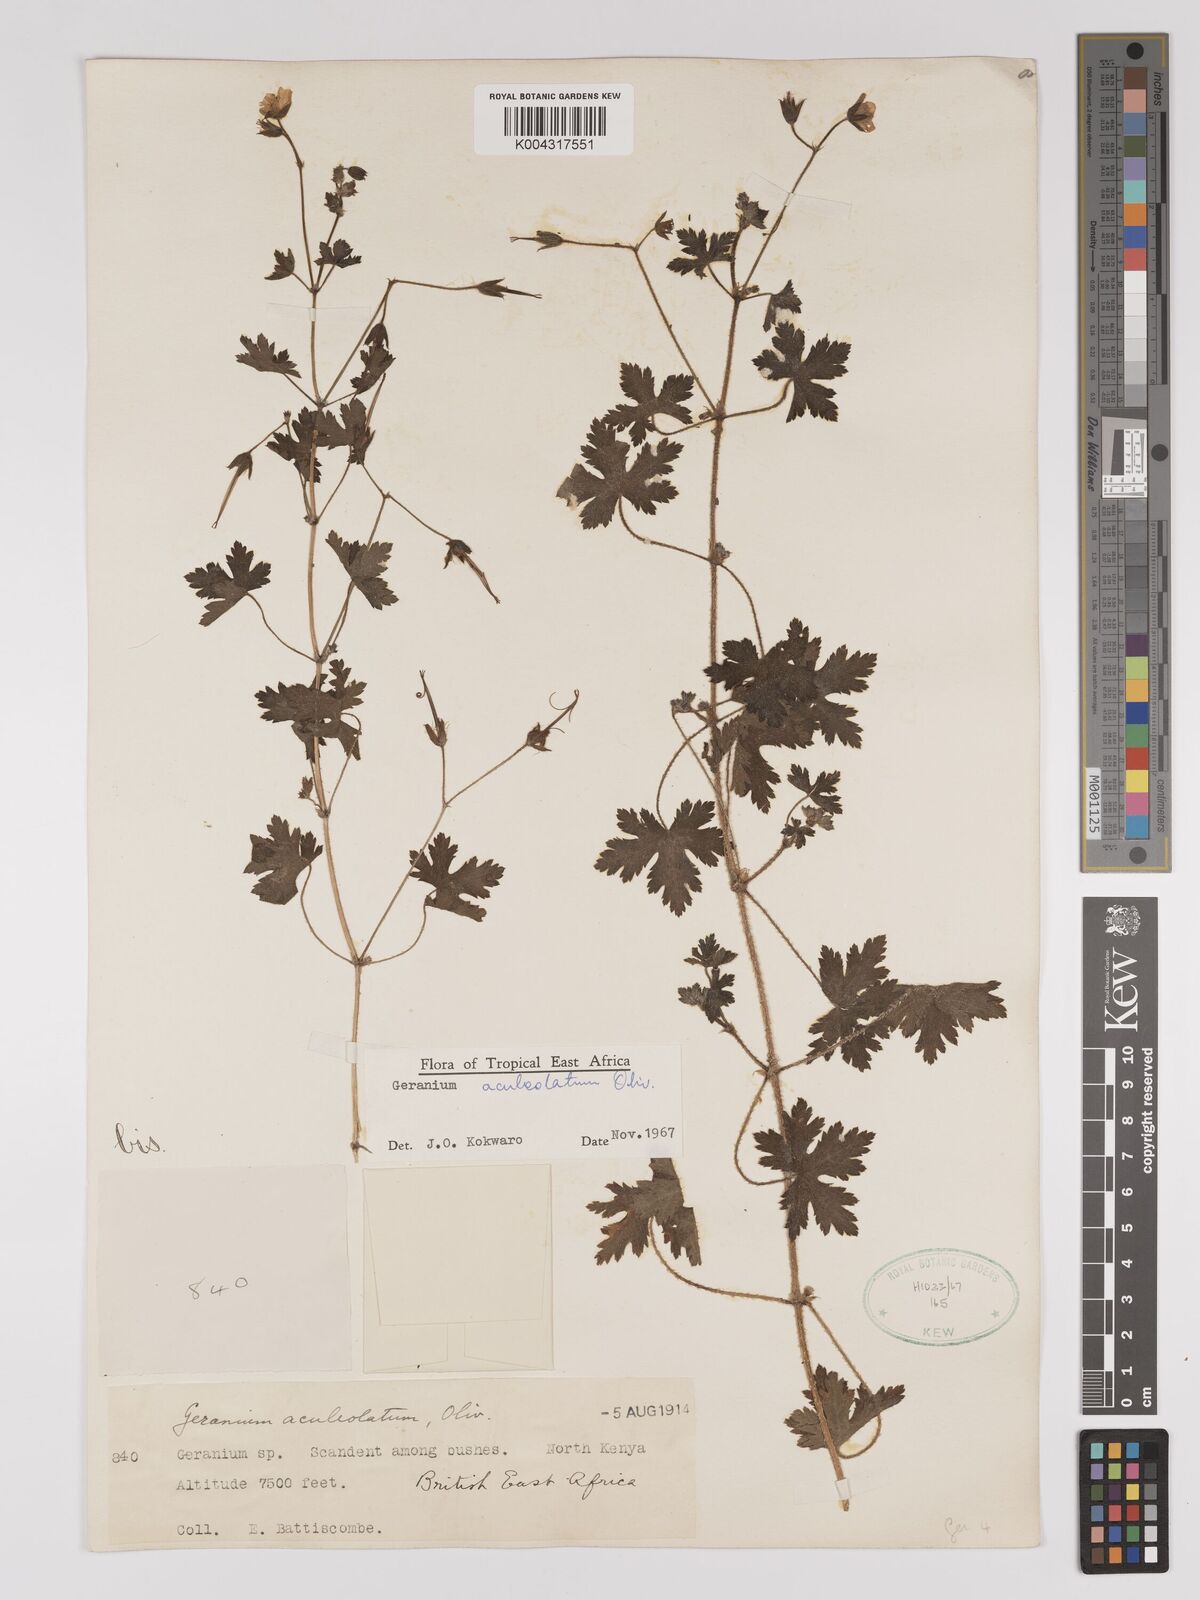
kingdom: Plantae
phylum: Tracheophyta
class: Magnoliopsida
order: Geraniales
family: Geraniaceae
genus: Geranium
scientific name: Geranium aculeolatum
